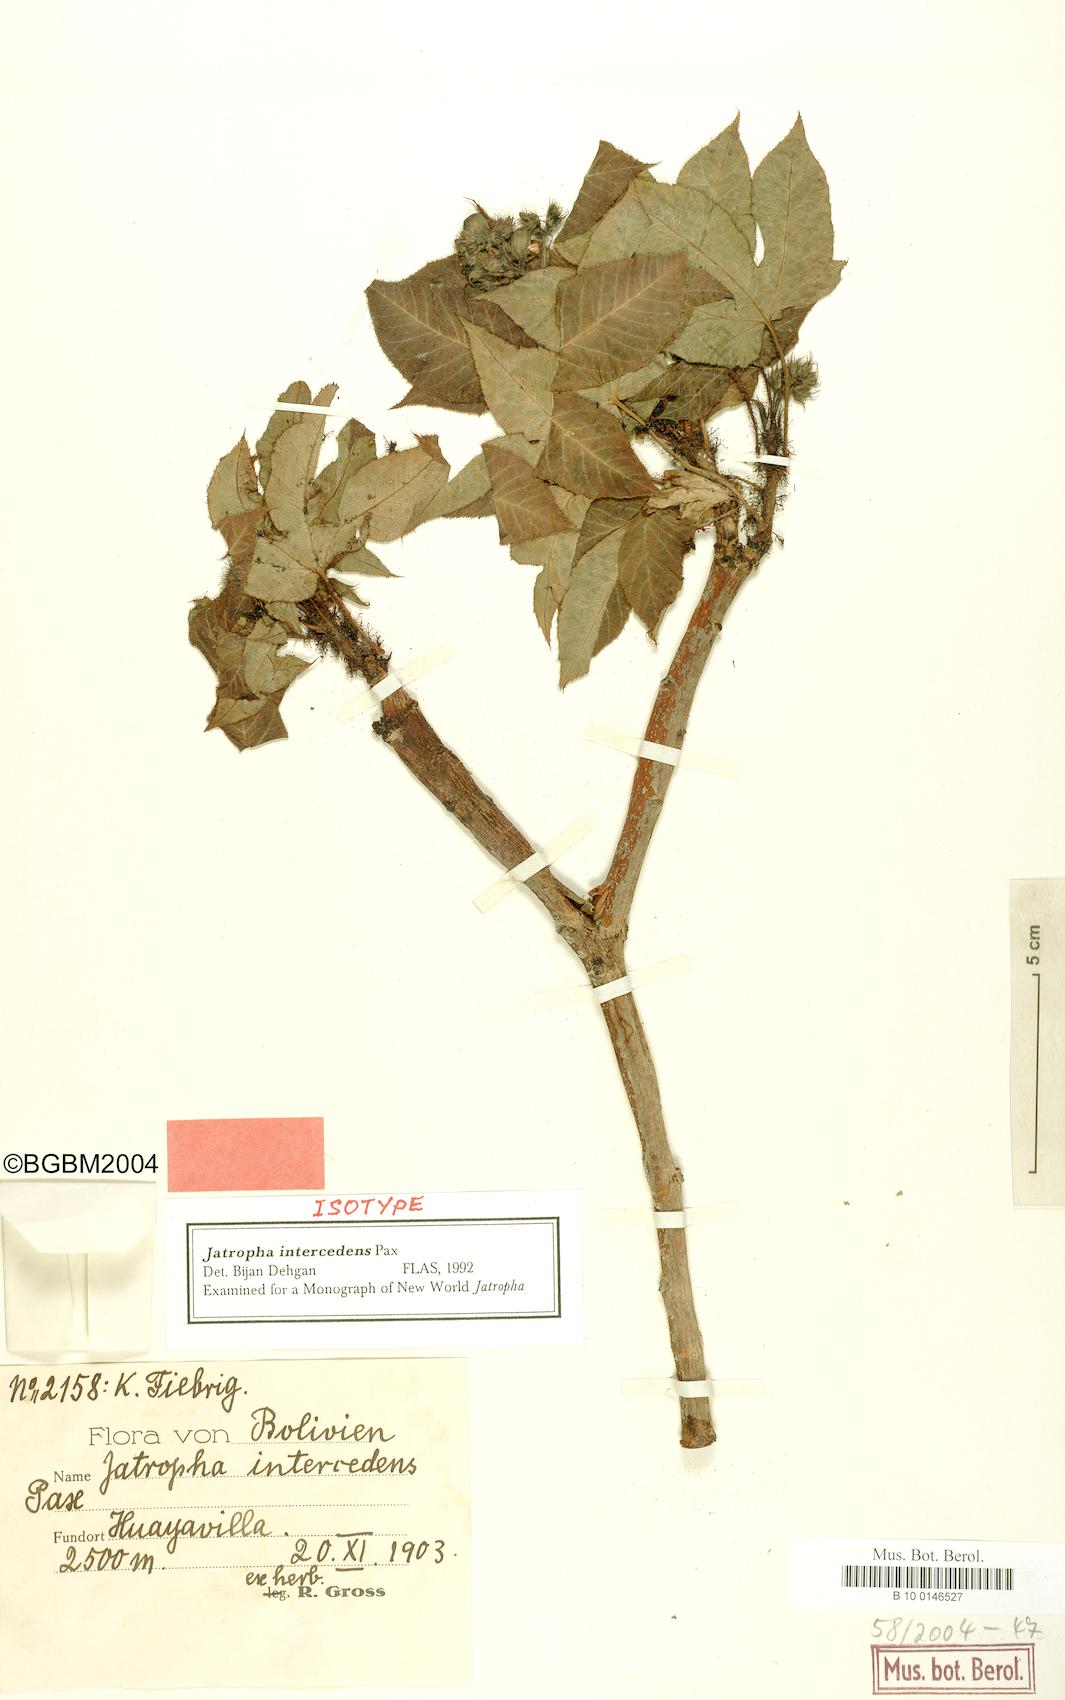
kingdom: Plantae
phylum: Tracheophyta
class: Magnoliopsida
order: Malpighiales
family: Euphorbiaceae
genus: Jatropha
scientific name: Jatropha excisa
